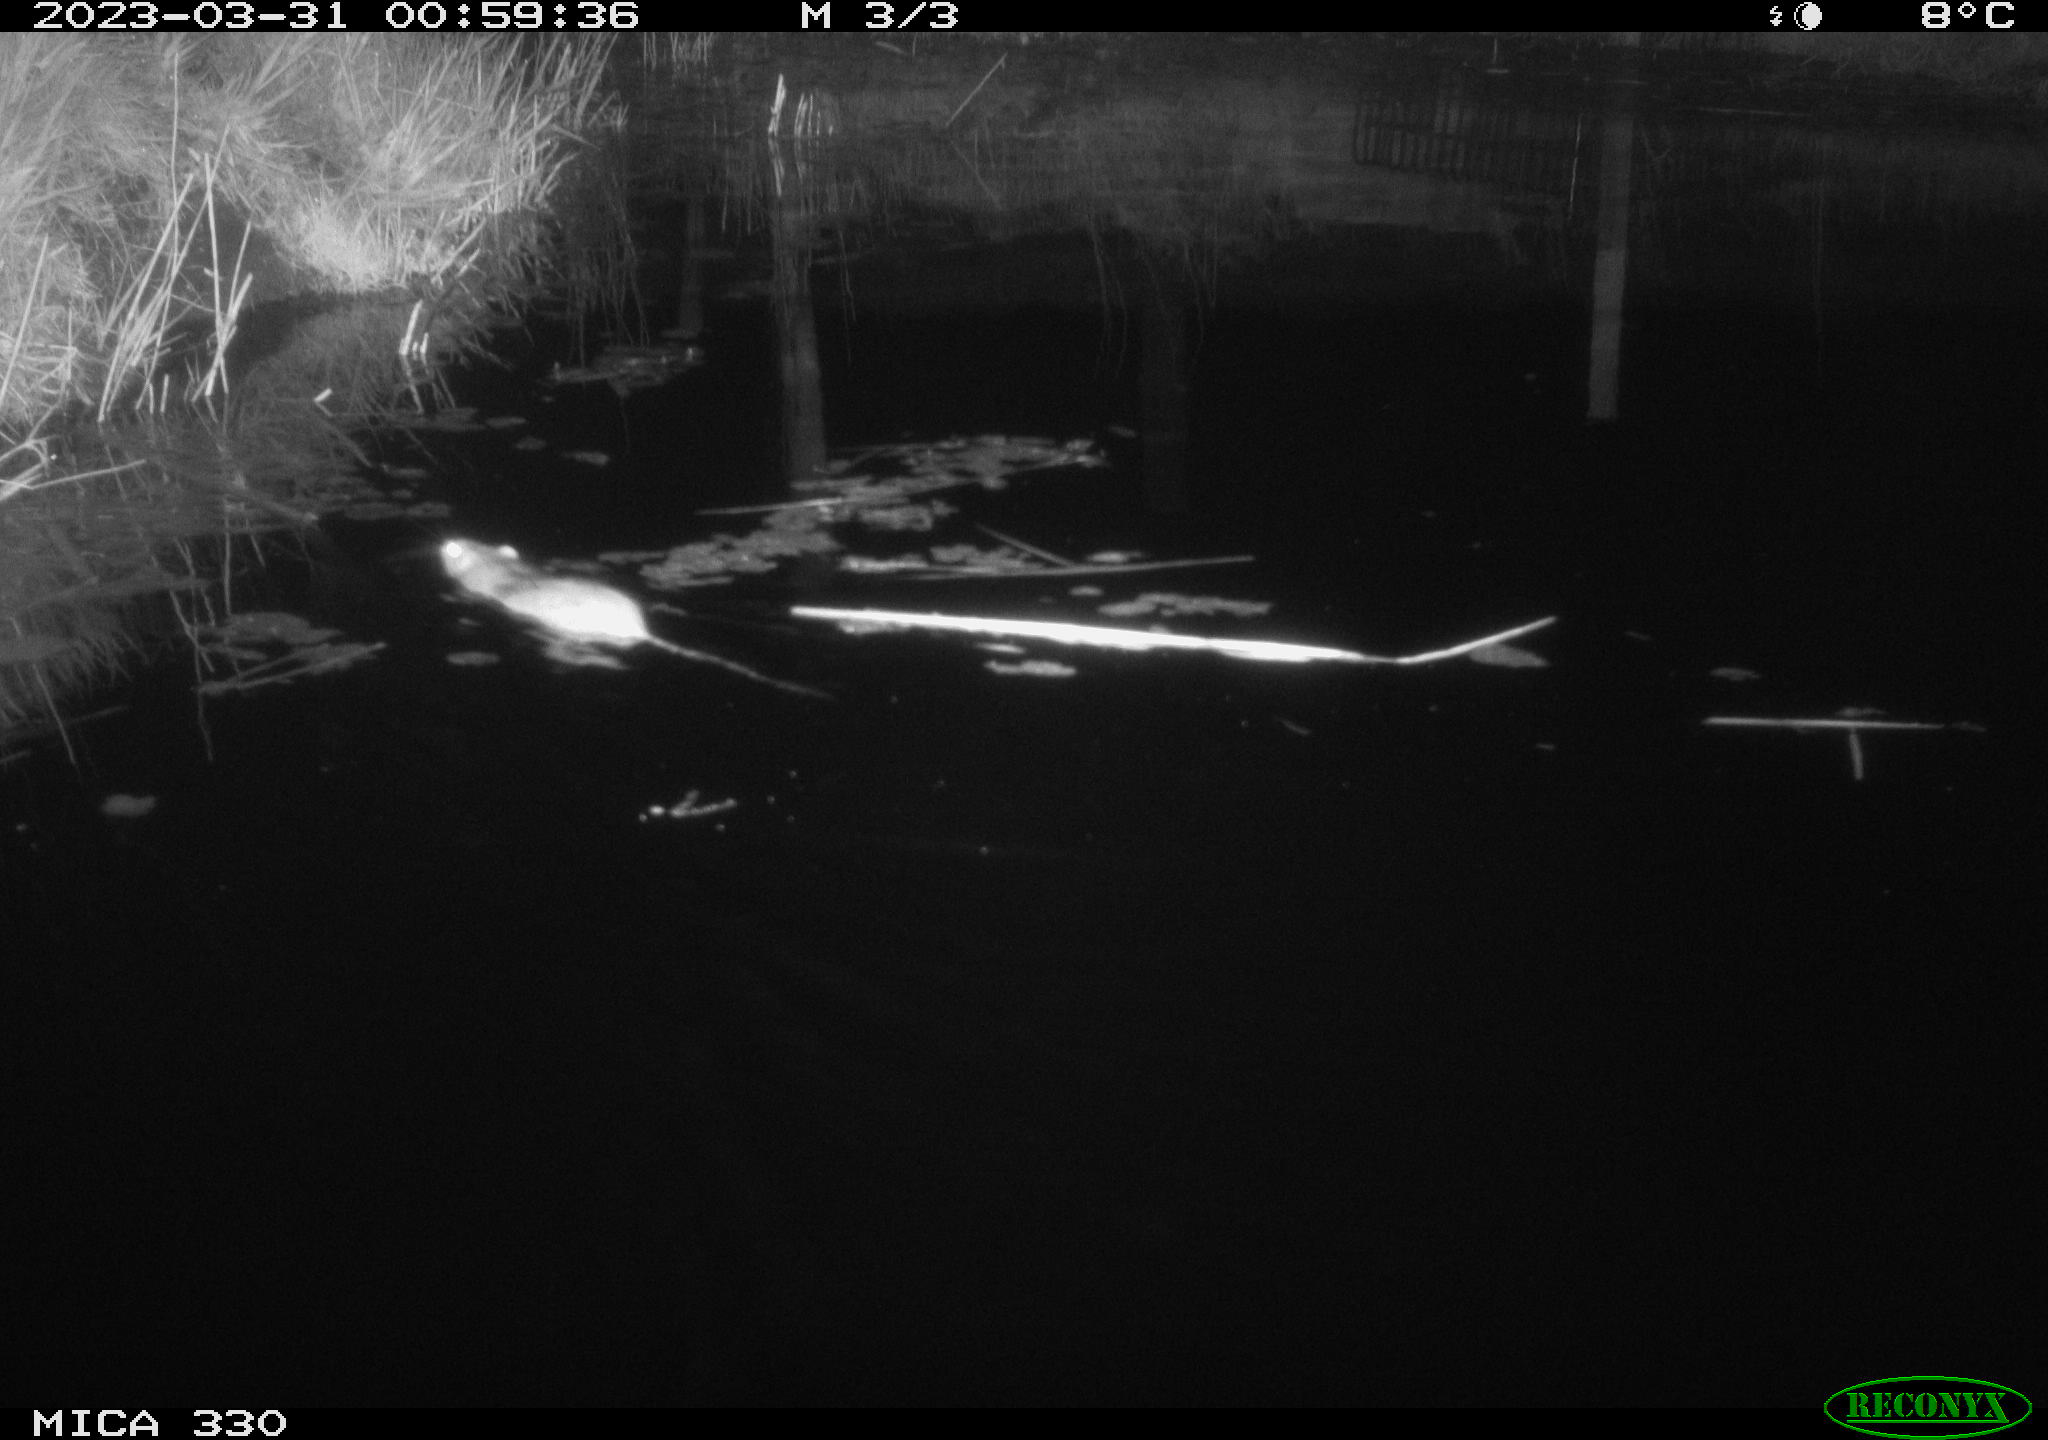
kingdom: Animalia
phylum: Chordata
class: Mammalia
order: Rodentia
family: Muridae
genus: Rattus
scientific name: Rattus norvegicus
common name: Brown rat
